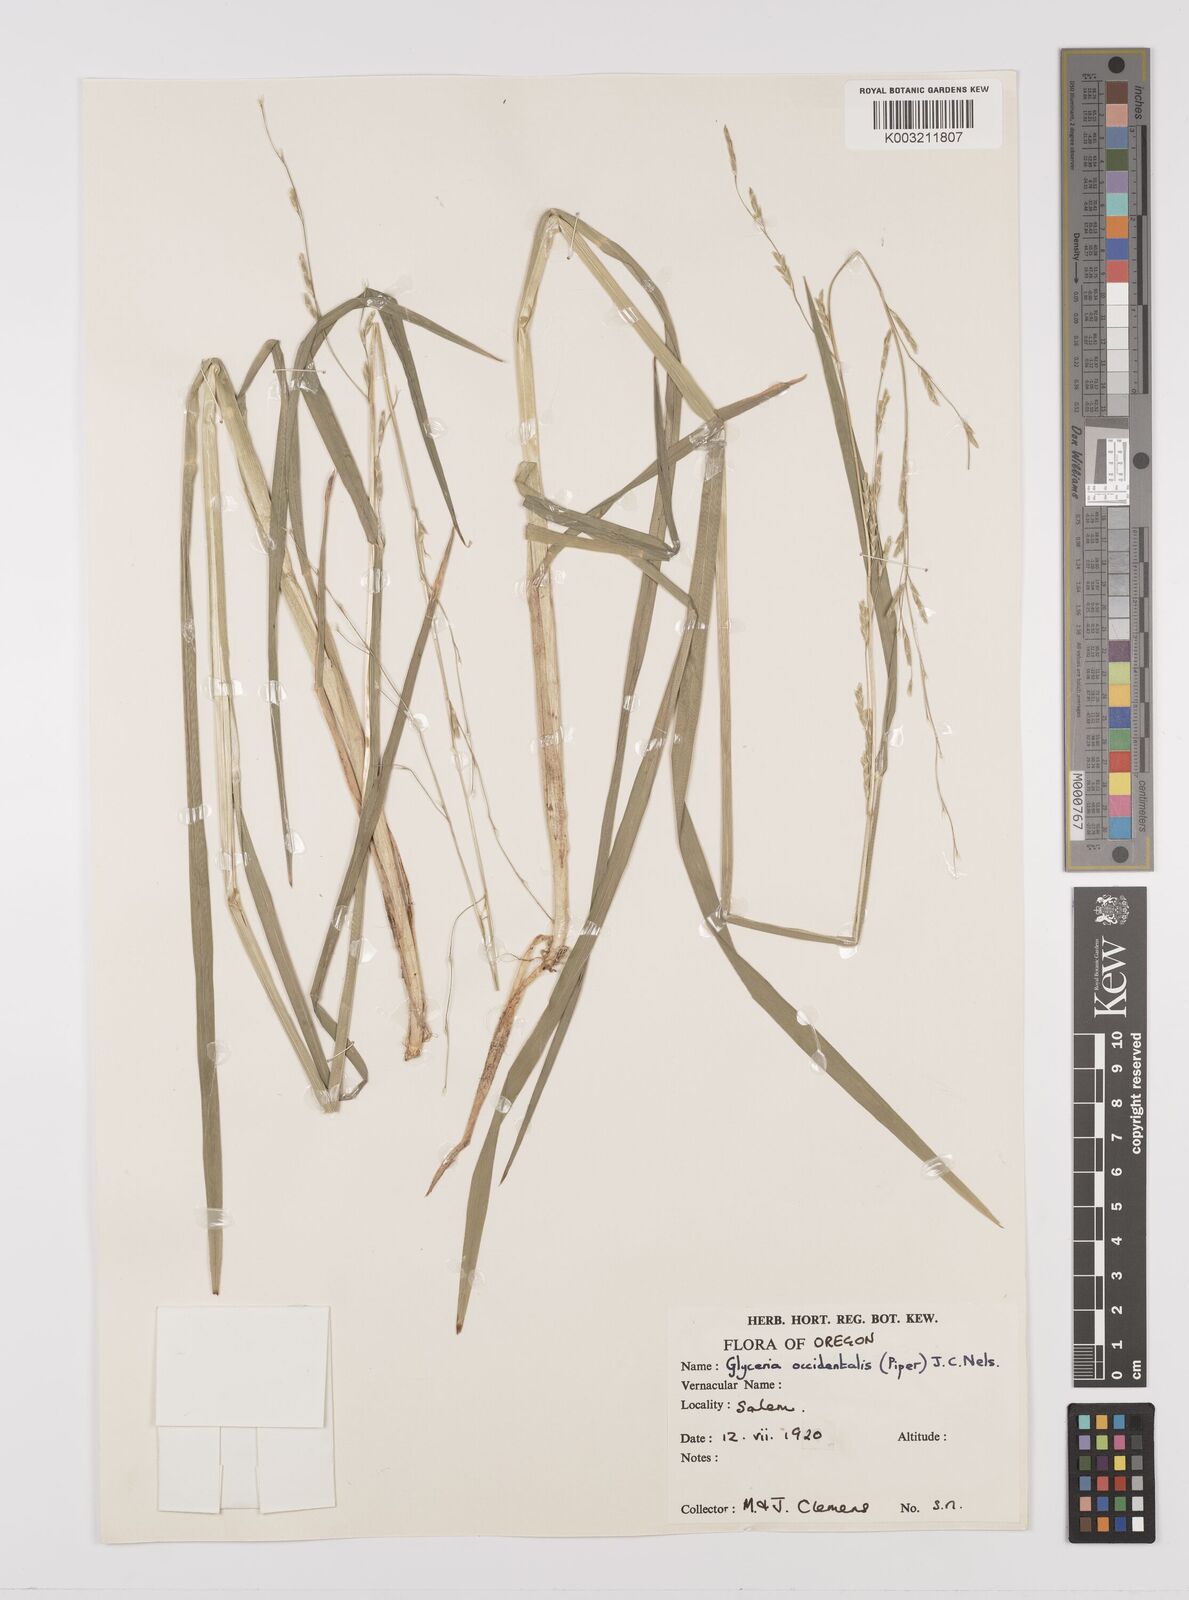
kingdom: Plantae
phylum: Tracheophyta
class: Liliopsida
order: Poales
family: Poaceae
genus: Glyceria
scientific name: Glyceria occidentalis
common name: Western manna grass
